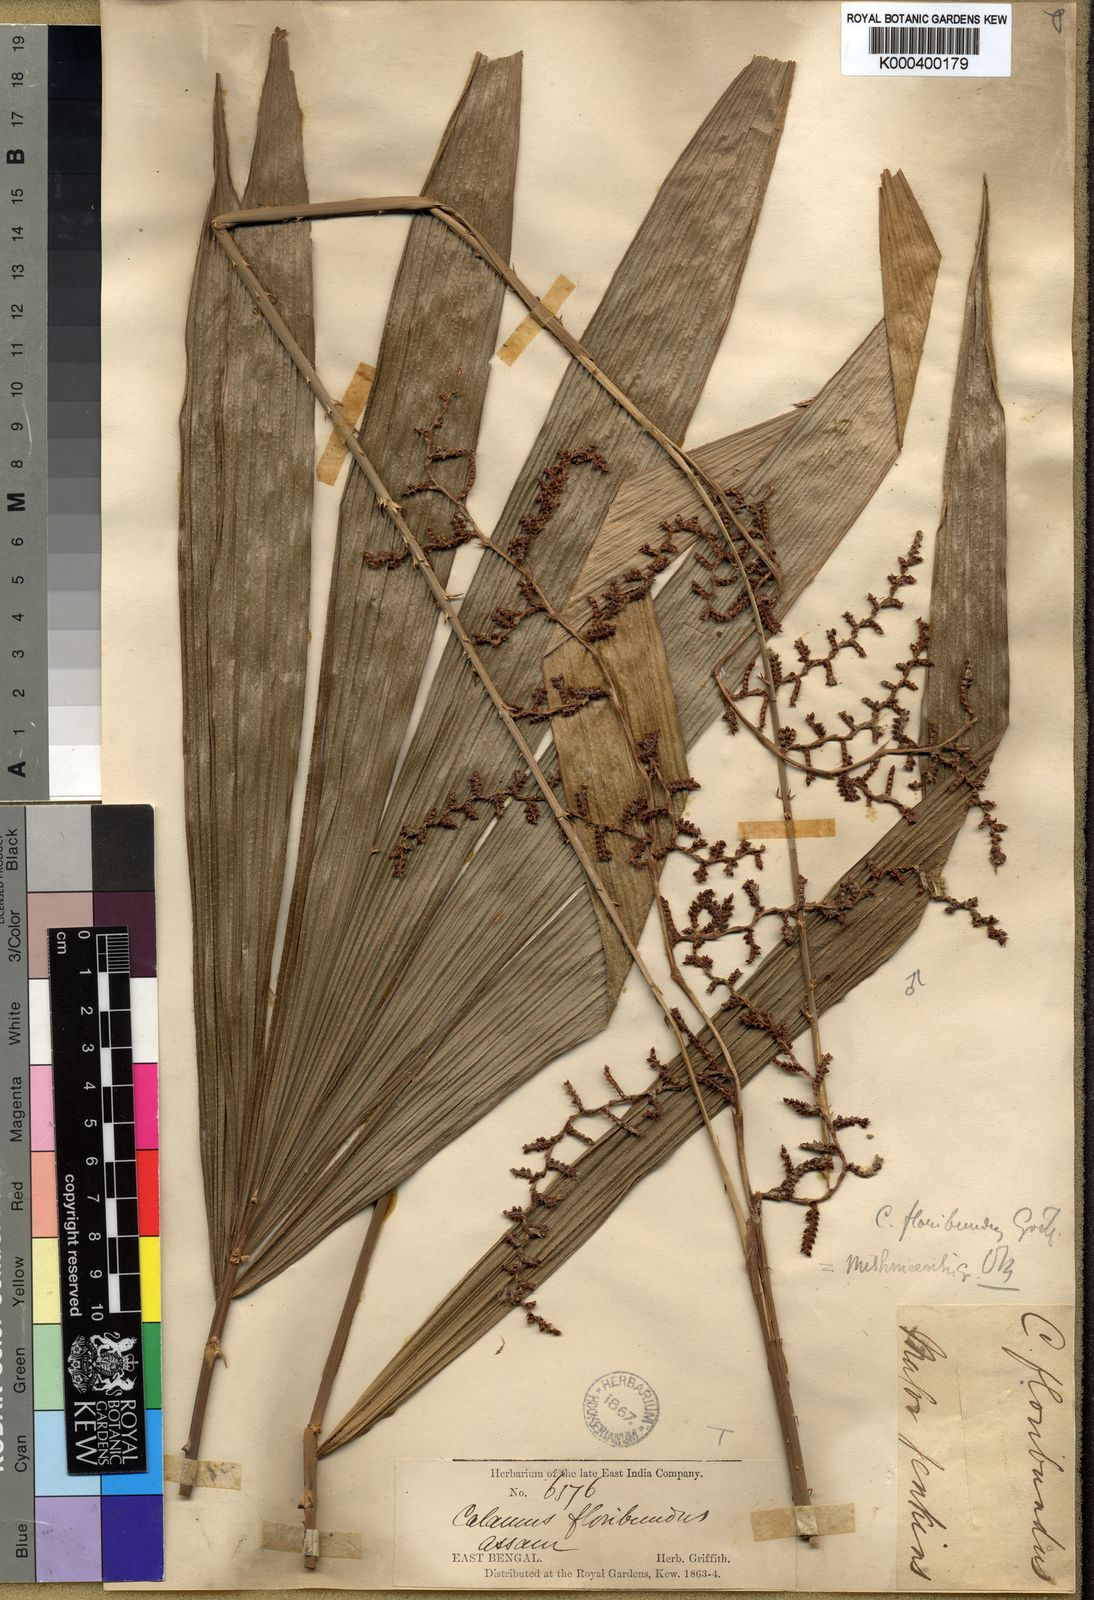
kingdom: Plantae
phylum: Tracheophyta
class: Liliopsida
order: Arecales
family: Arecaceae
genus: Calamus
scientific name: Calamus floribundus
